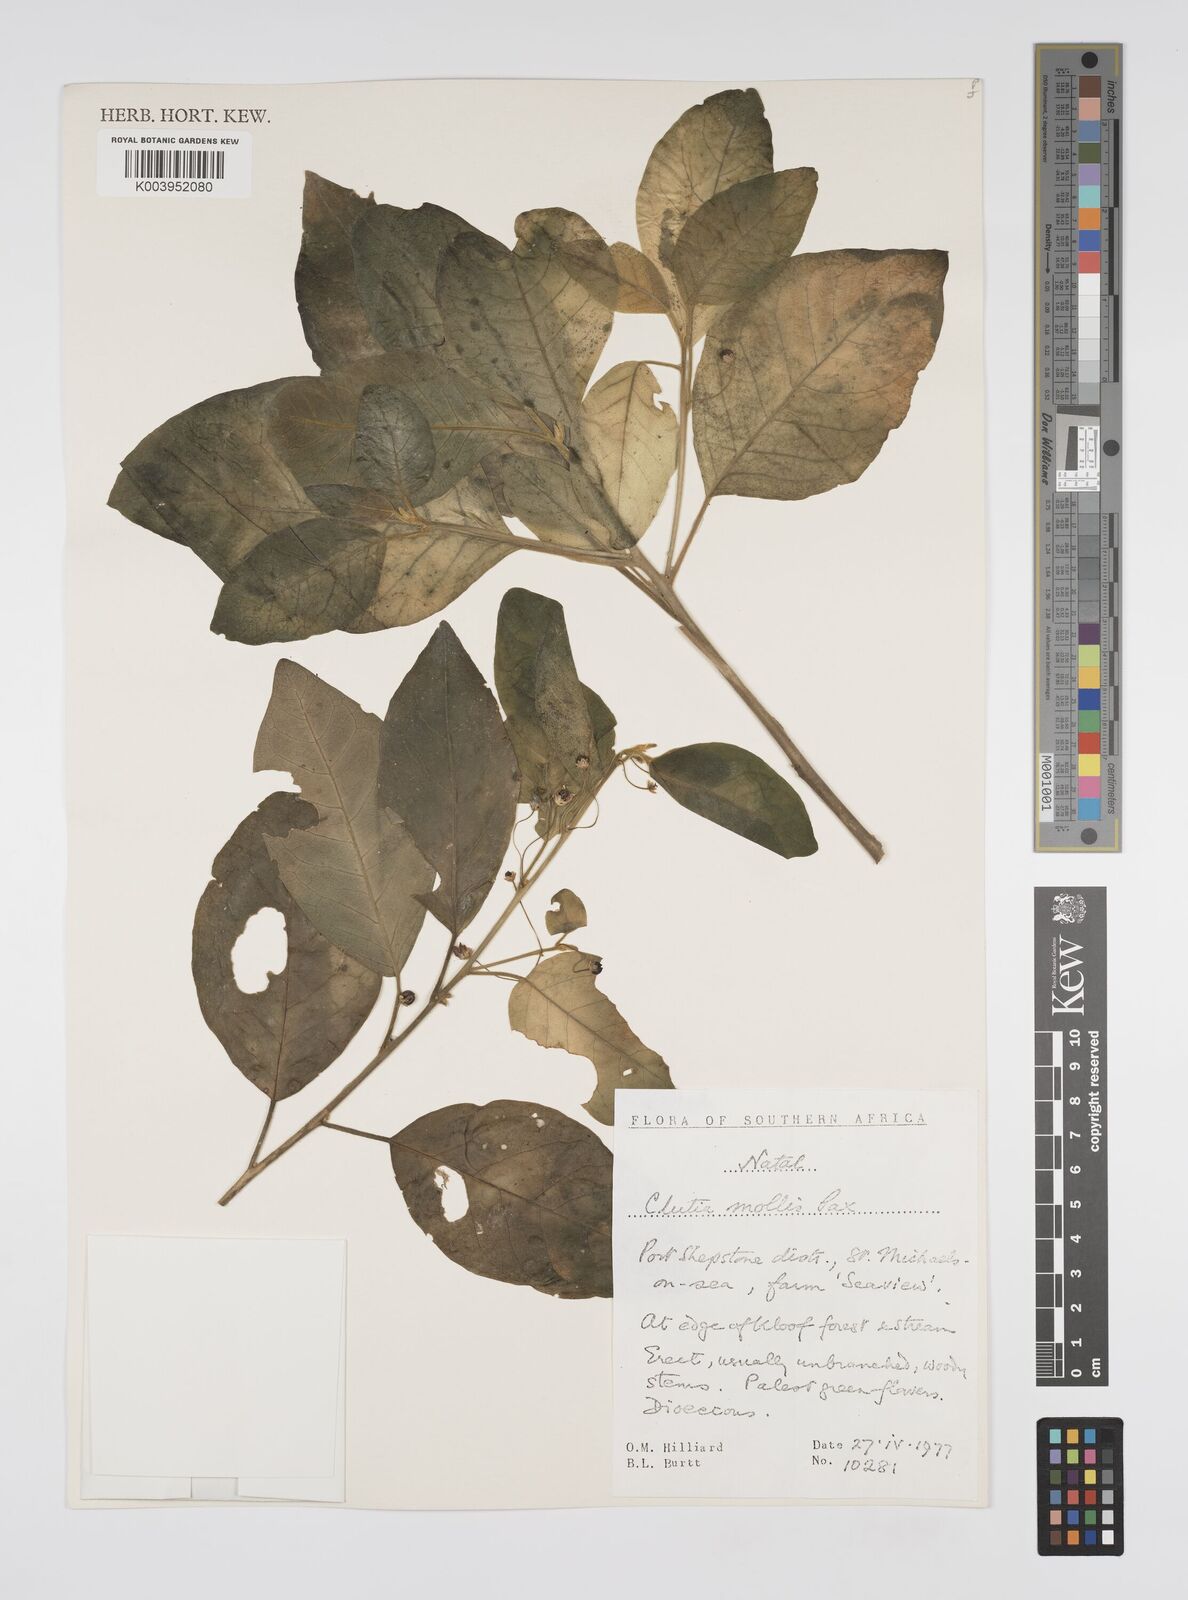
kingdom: Plantae
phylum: Tracheophyta
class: Magnoliopsida
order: Malpighiales
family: Peraceae
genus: Clutia
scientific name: Clutia abyssinica
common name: Large lightning bush
